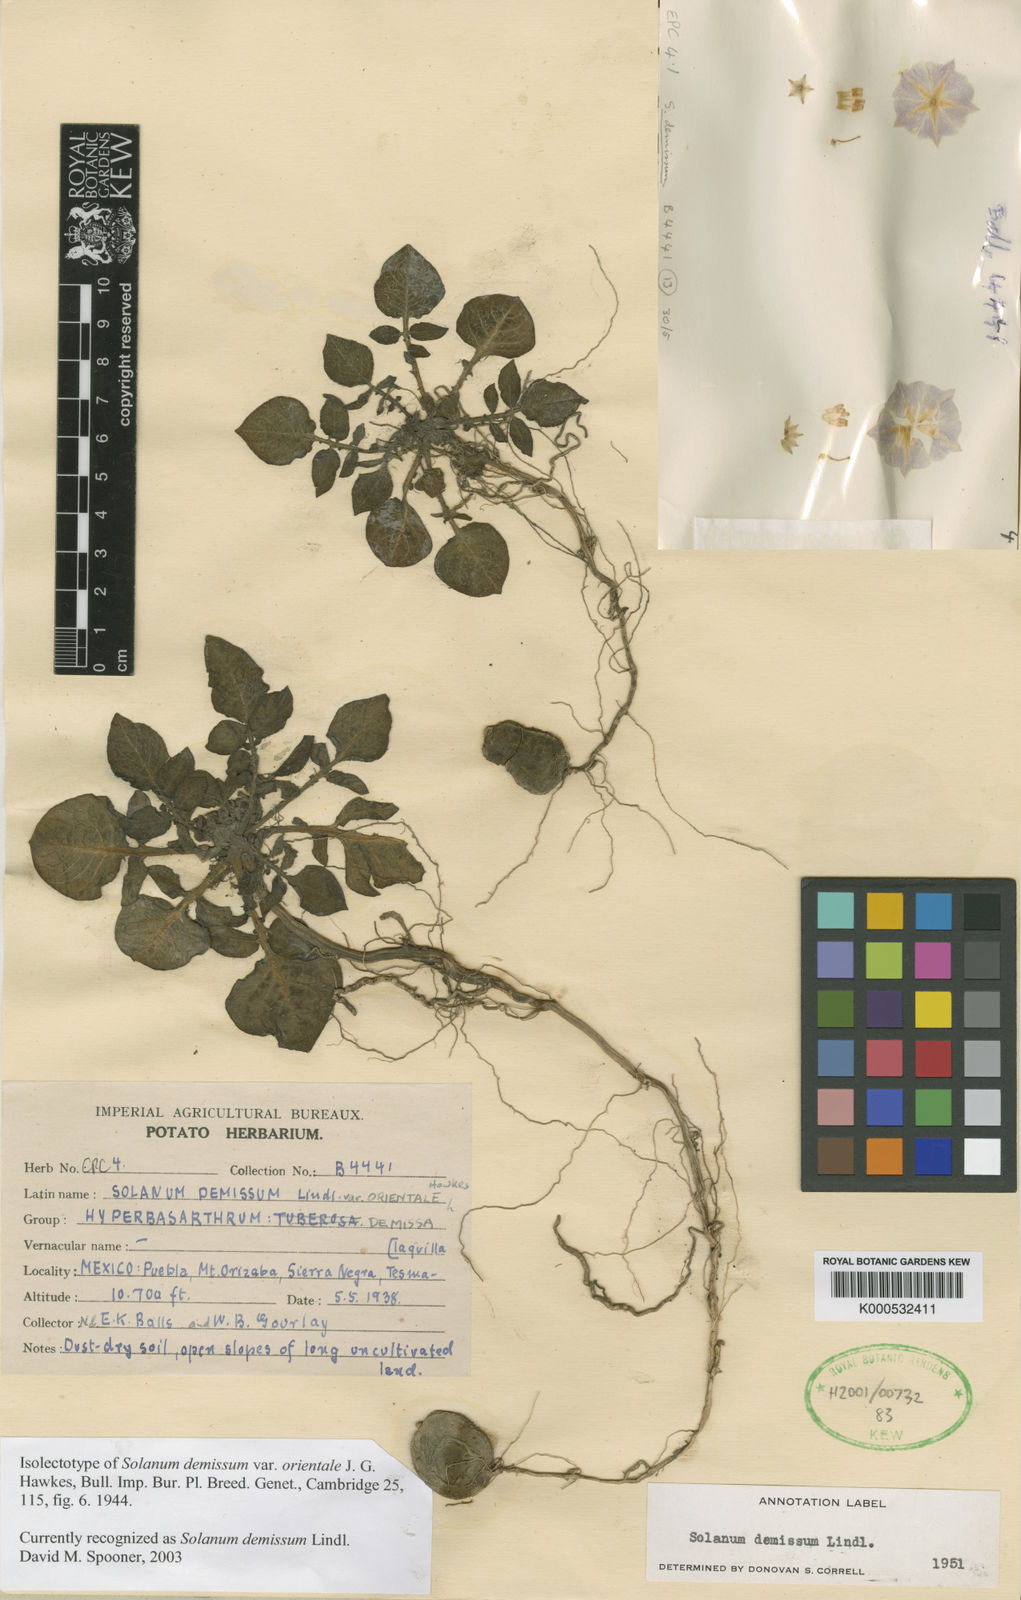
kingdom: Plantae
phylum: Tracheophyta
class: Magnoliopsida
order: Solanales
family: Solanaceae
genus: Solanum
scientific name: Solanum demissum
